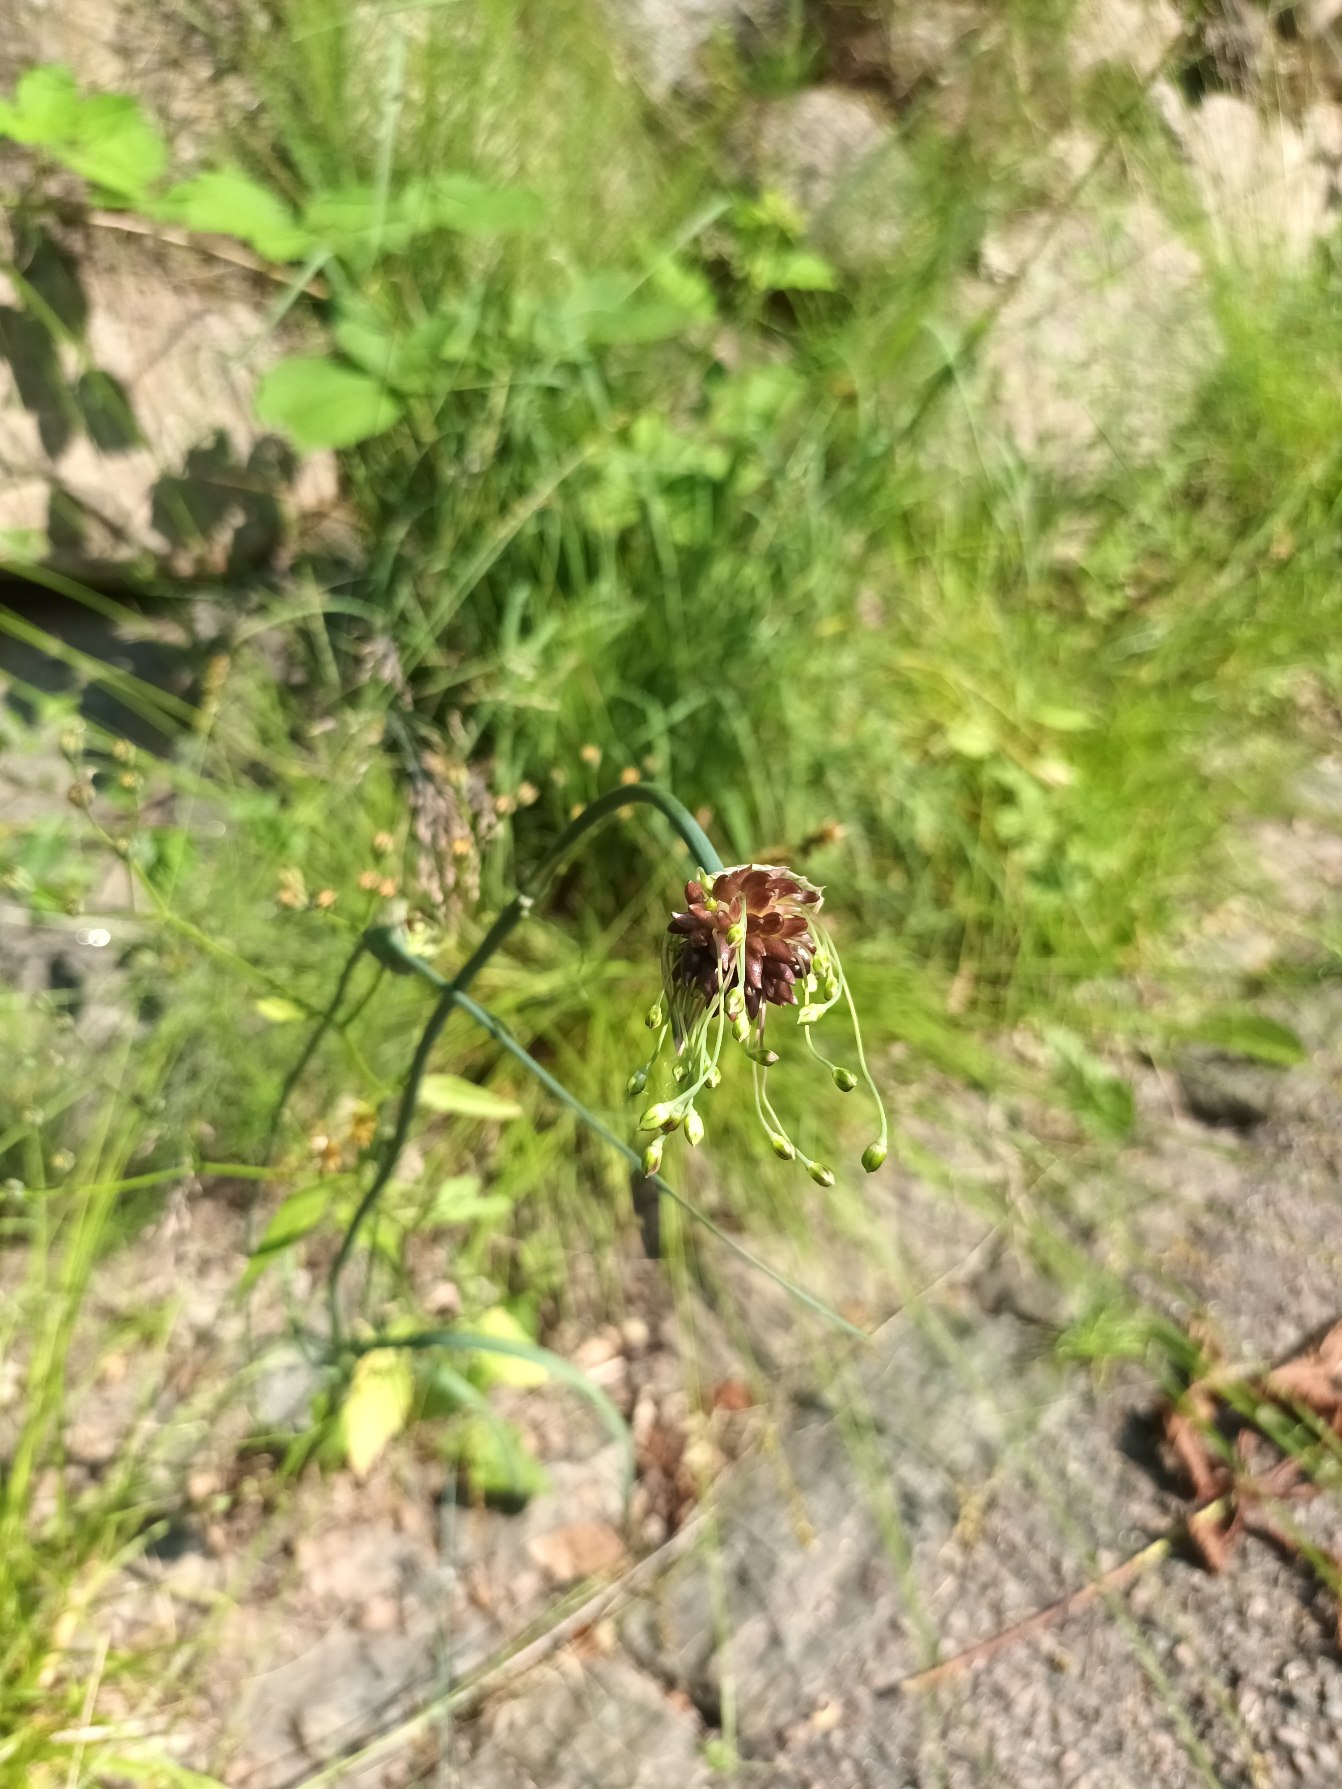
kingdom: Plantae
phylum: Tracheophyta
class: Liliopsida
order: Asparagales
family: Amaryllidaceae
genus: Allium
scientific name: Allium oleraceum
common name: Vild løg
